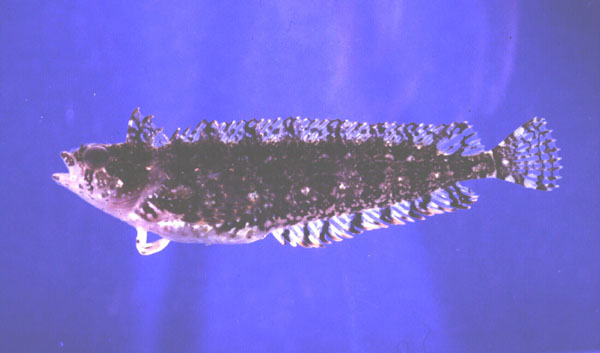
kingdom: Animalia
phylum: Chordata
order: Perciformes
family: Clinidae
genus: Pavoclinus
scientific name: Pavoclinus laurentii
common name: Rippled klipfish
